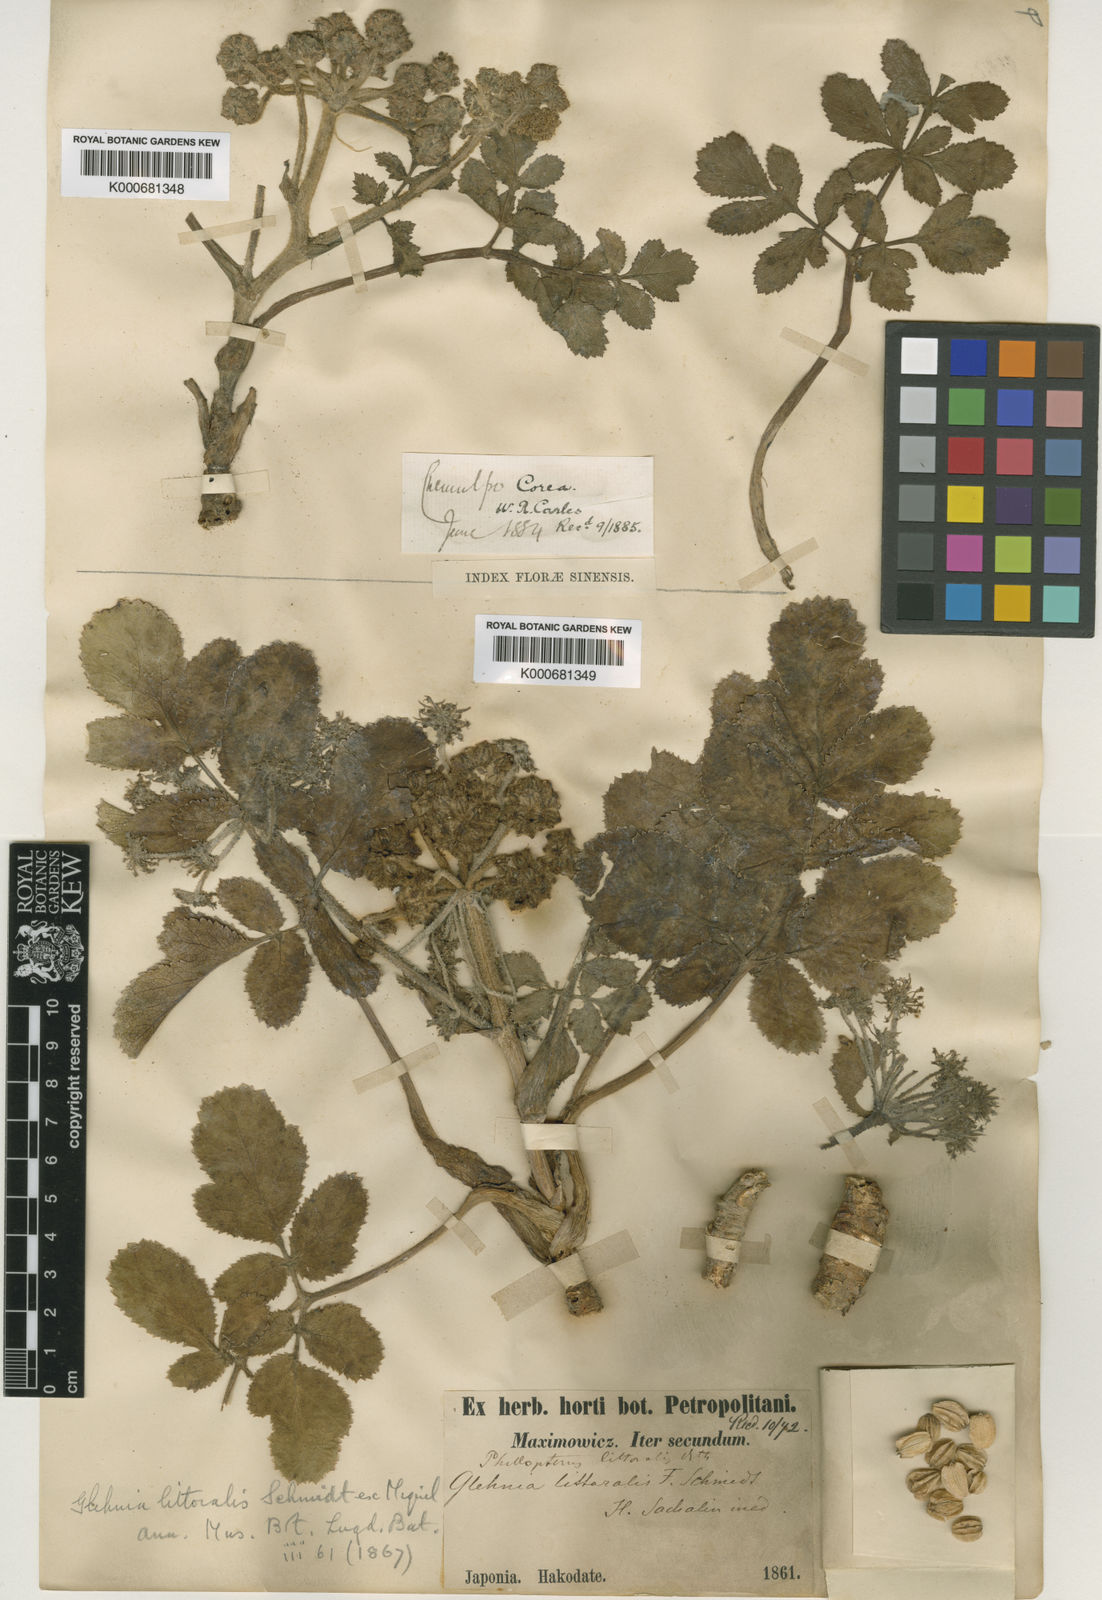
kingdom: Plantae
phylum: Tracheophyta
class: Magnoliopsida
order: Apiales
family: Apiaceae
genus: Glehnia
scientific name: Glehnia littoralis
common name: Beach silvertop
